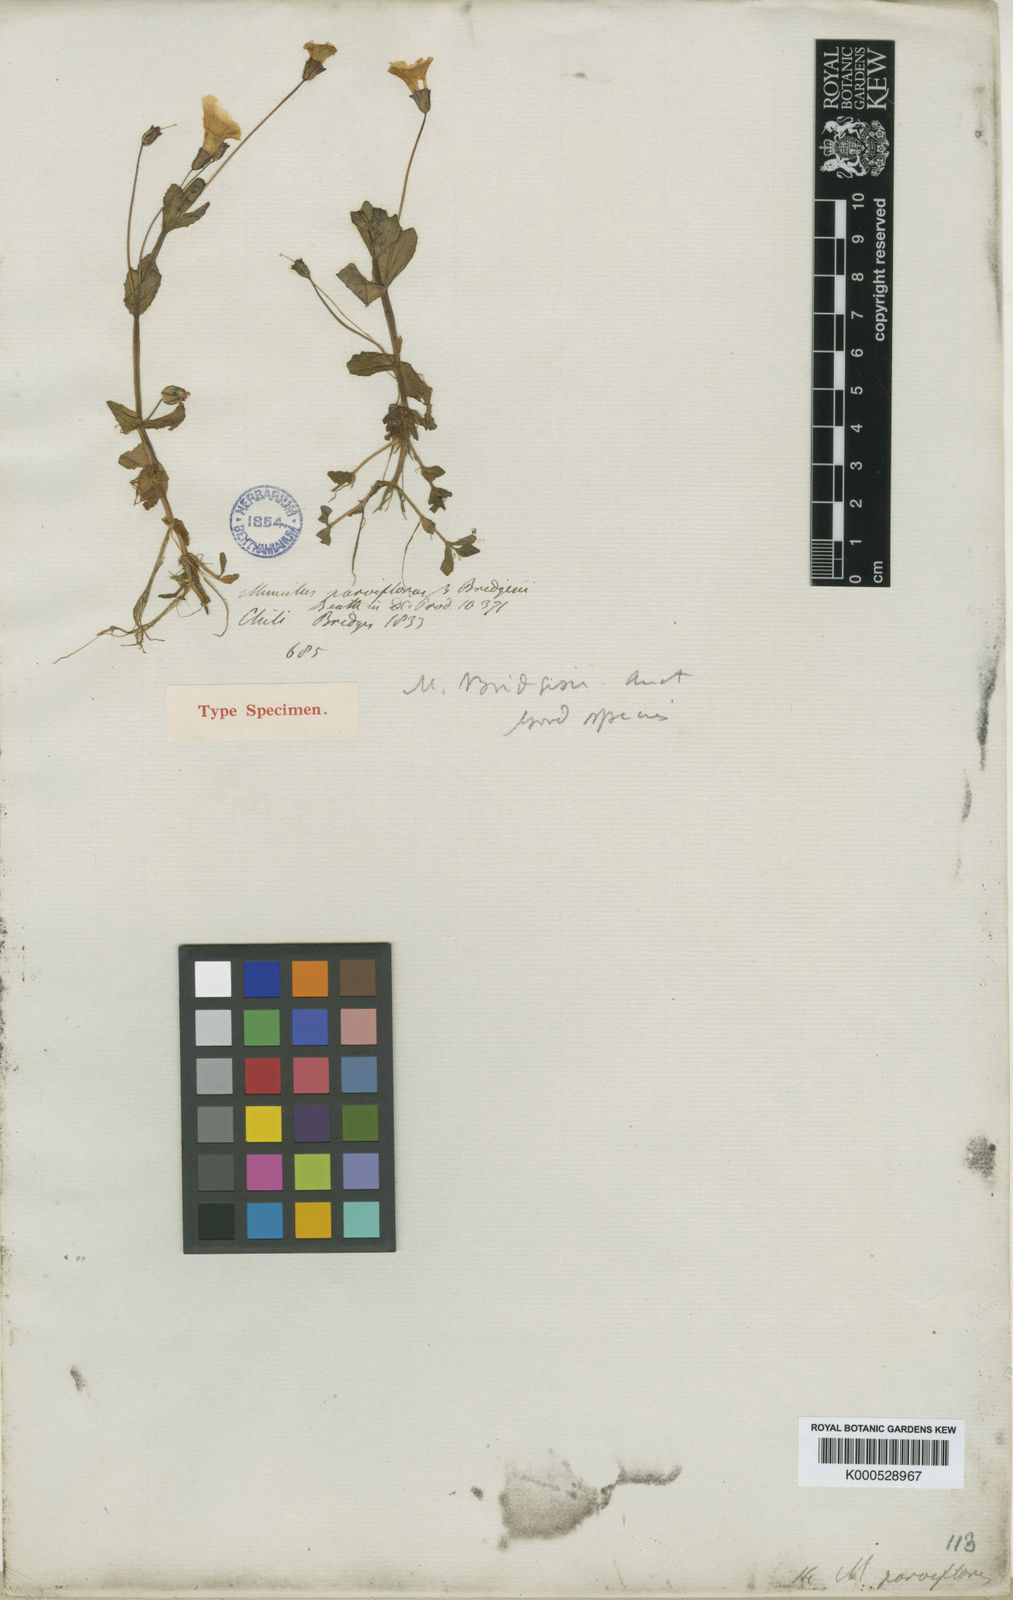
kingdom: Plantae
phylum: Tracheophyta
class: Magnoliopsida
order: Lamiales
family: Phrymaceae
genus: Erythranthe
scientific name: Erythranthe bridgesii
